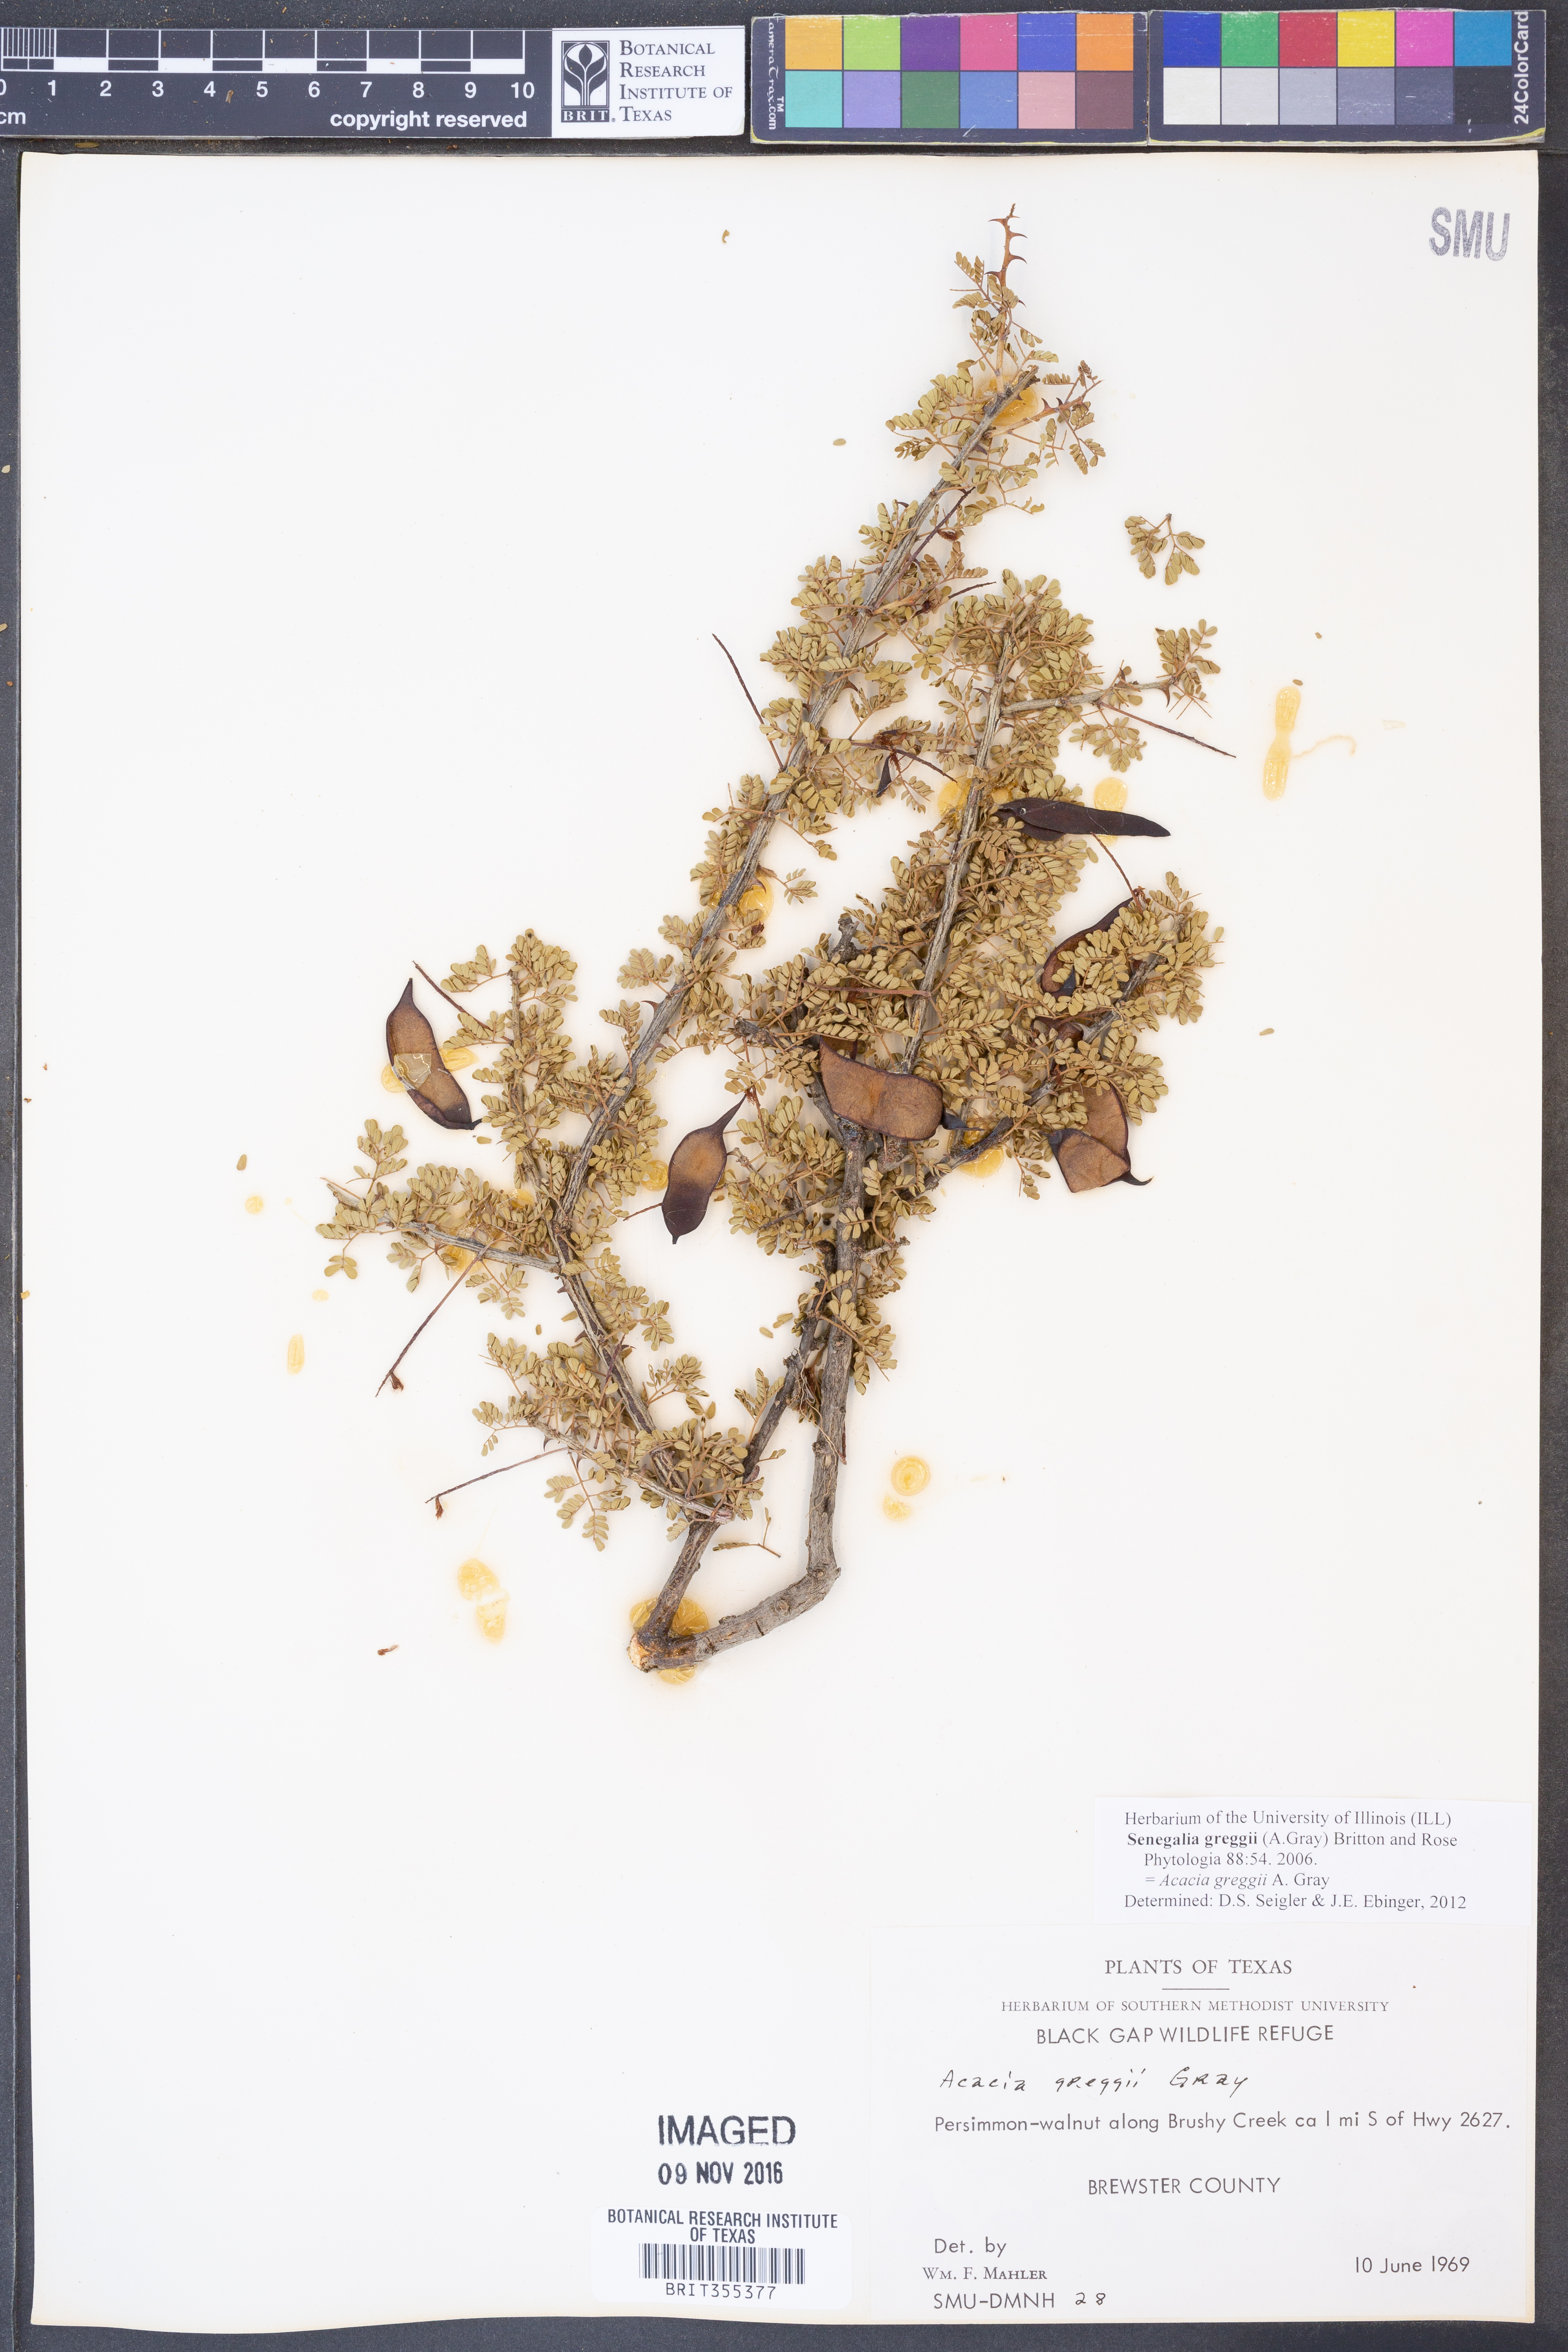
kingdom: Plantae
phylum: Tracheophyta
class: Magnoliopsida
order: Fabales
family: Fabaceae
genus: Senegalia
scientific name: Senegalia greggii
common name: Texas-mimosa
